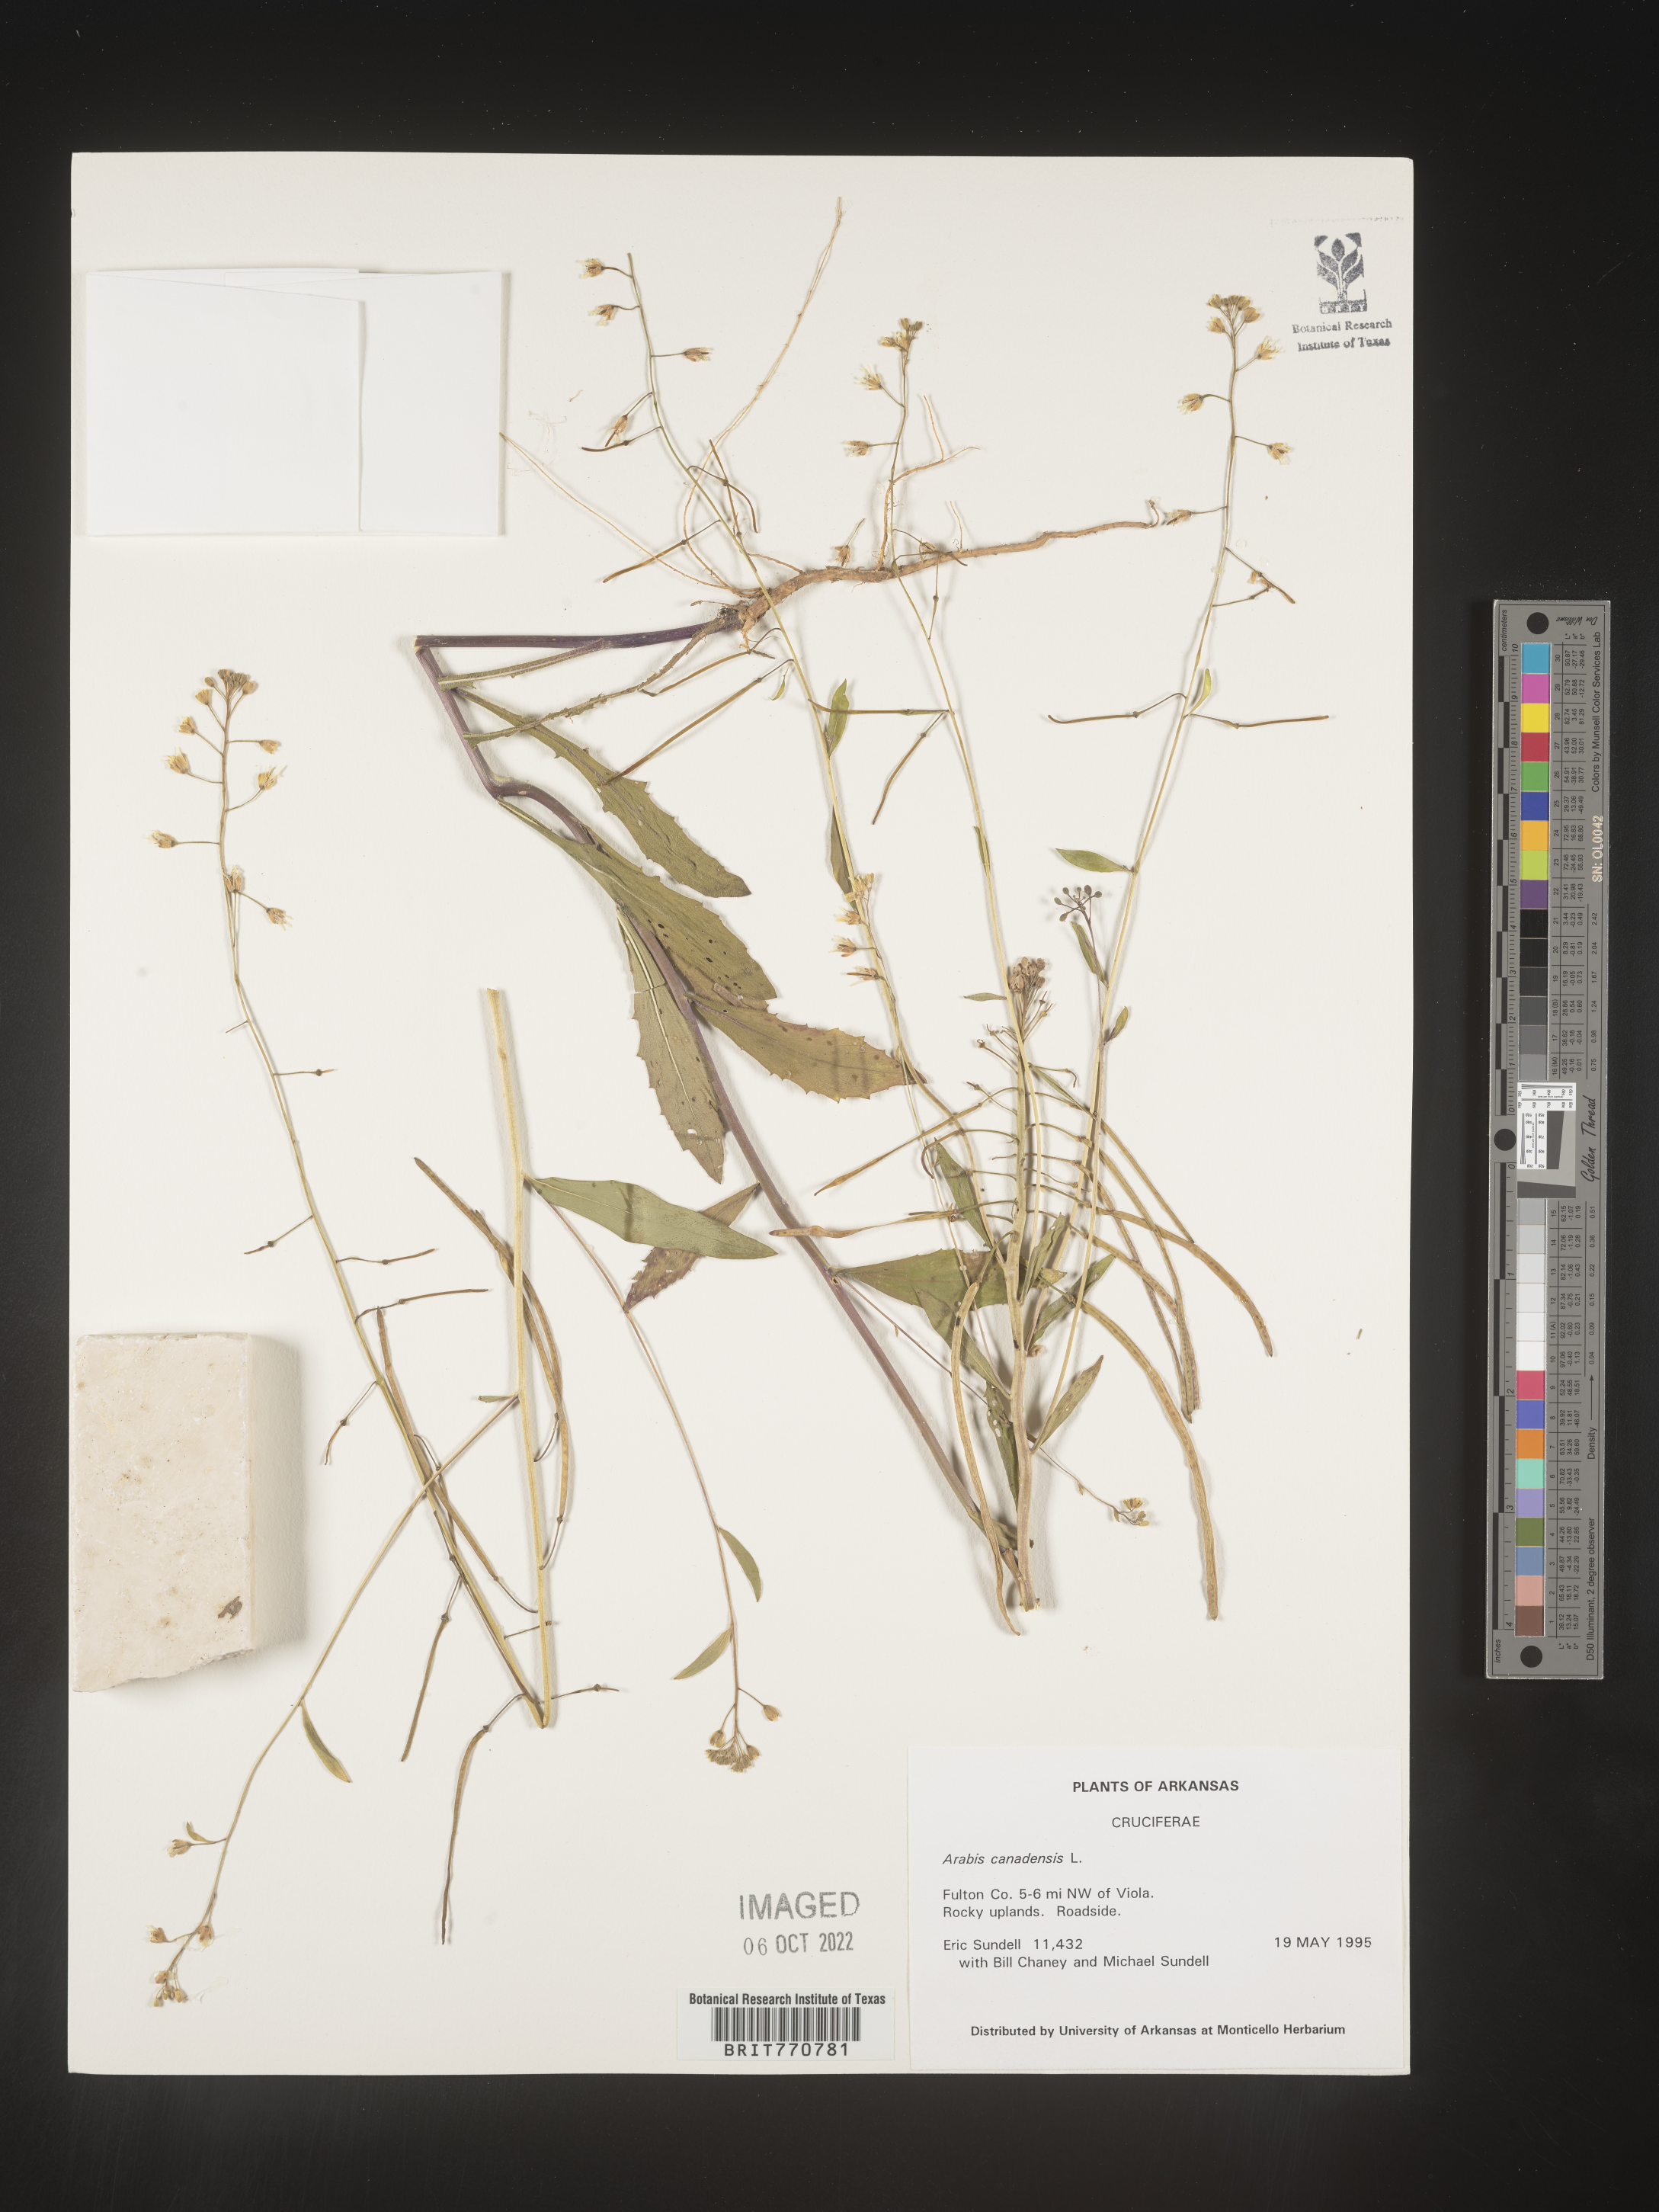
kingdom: Plantae
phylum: Tracheophyta
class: Magnoliopsida
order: Brassicales
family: Brassicaceae
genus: Borodinia
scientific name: Borodinia canadensis
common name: Sicklepod
